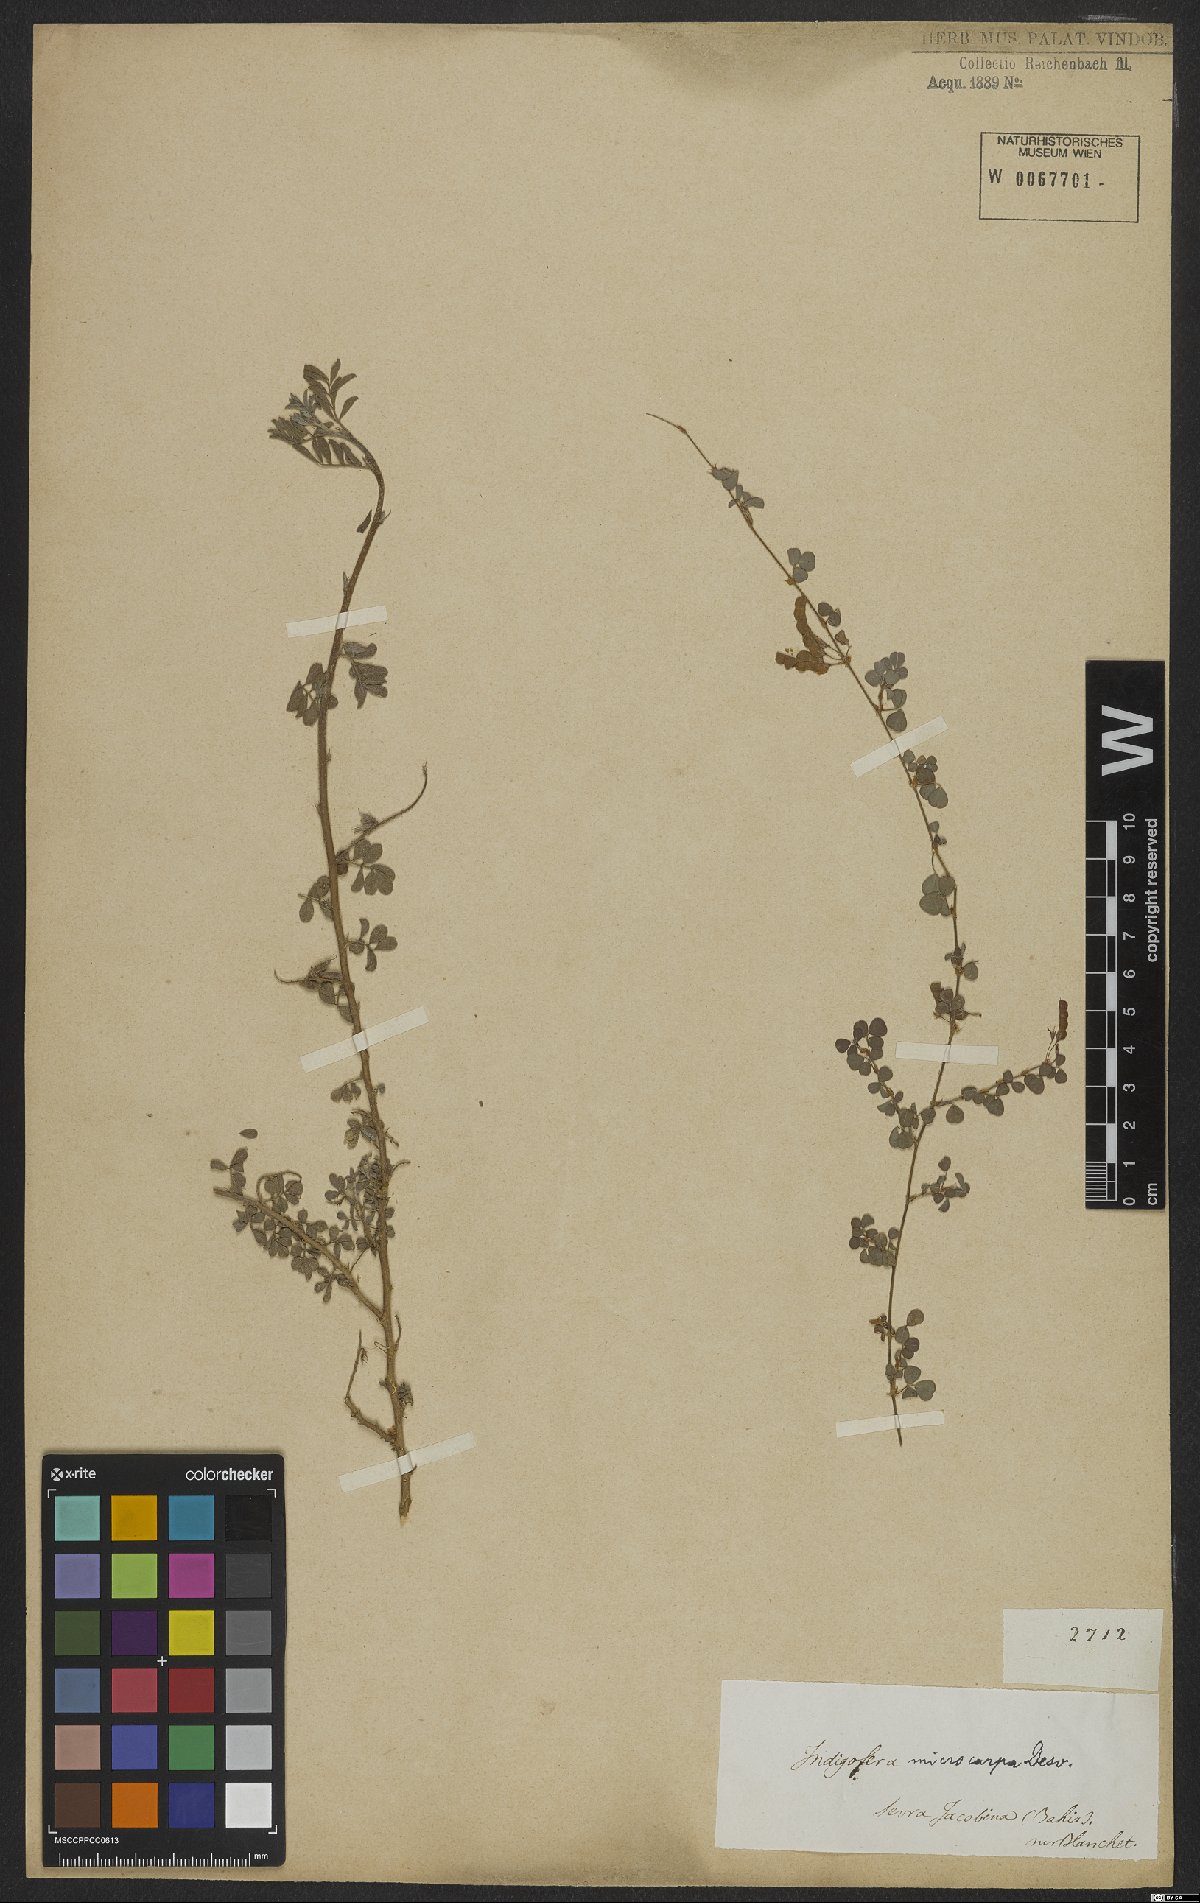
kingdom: Plantae
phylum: Tracheophyta
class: Magnoliopsida
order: Fabales
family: Fabaceae
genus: Indigofera
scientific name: Indigofera microcarpa
